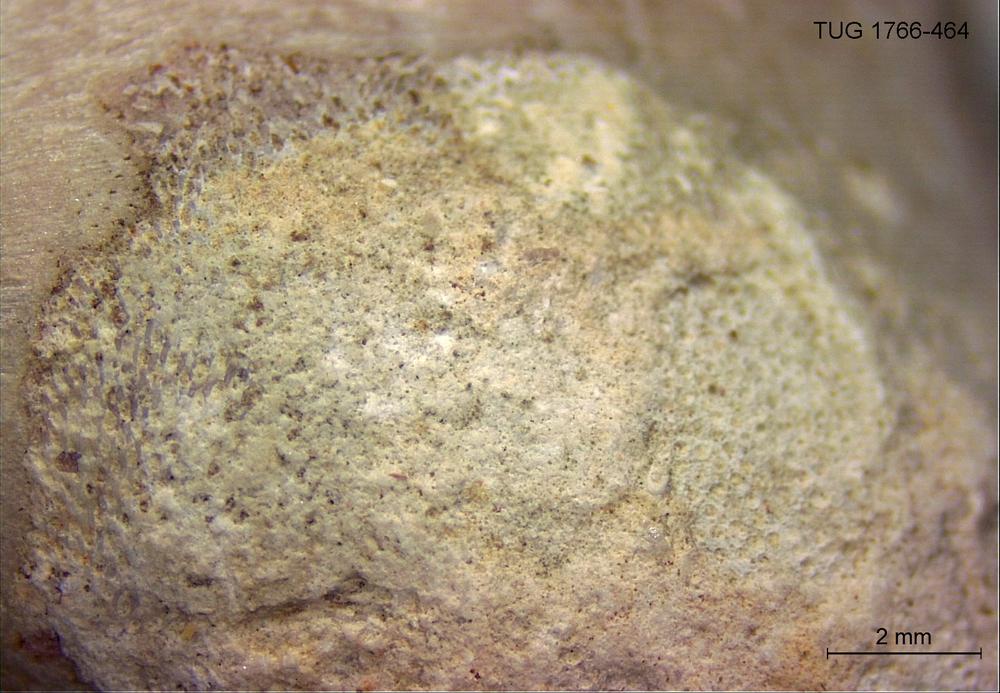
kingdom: Animalia
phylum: Bryozoa
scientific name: Bryozoa
